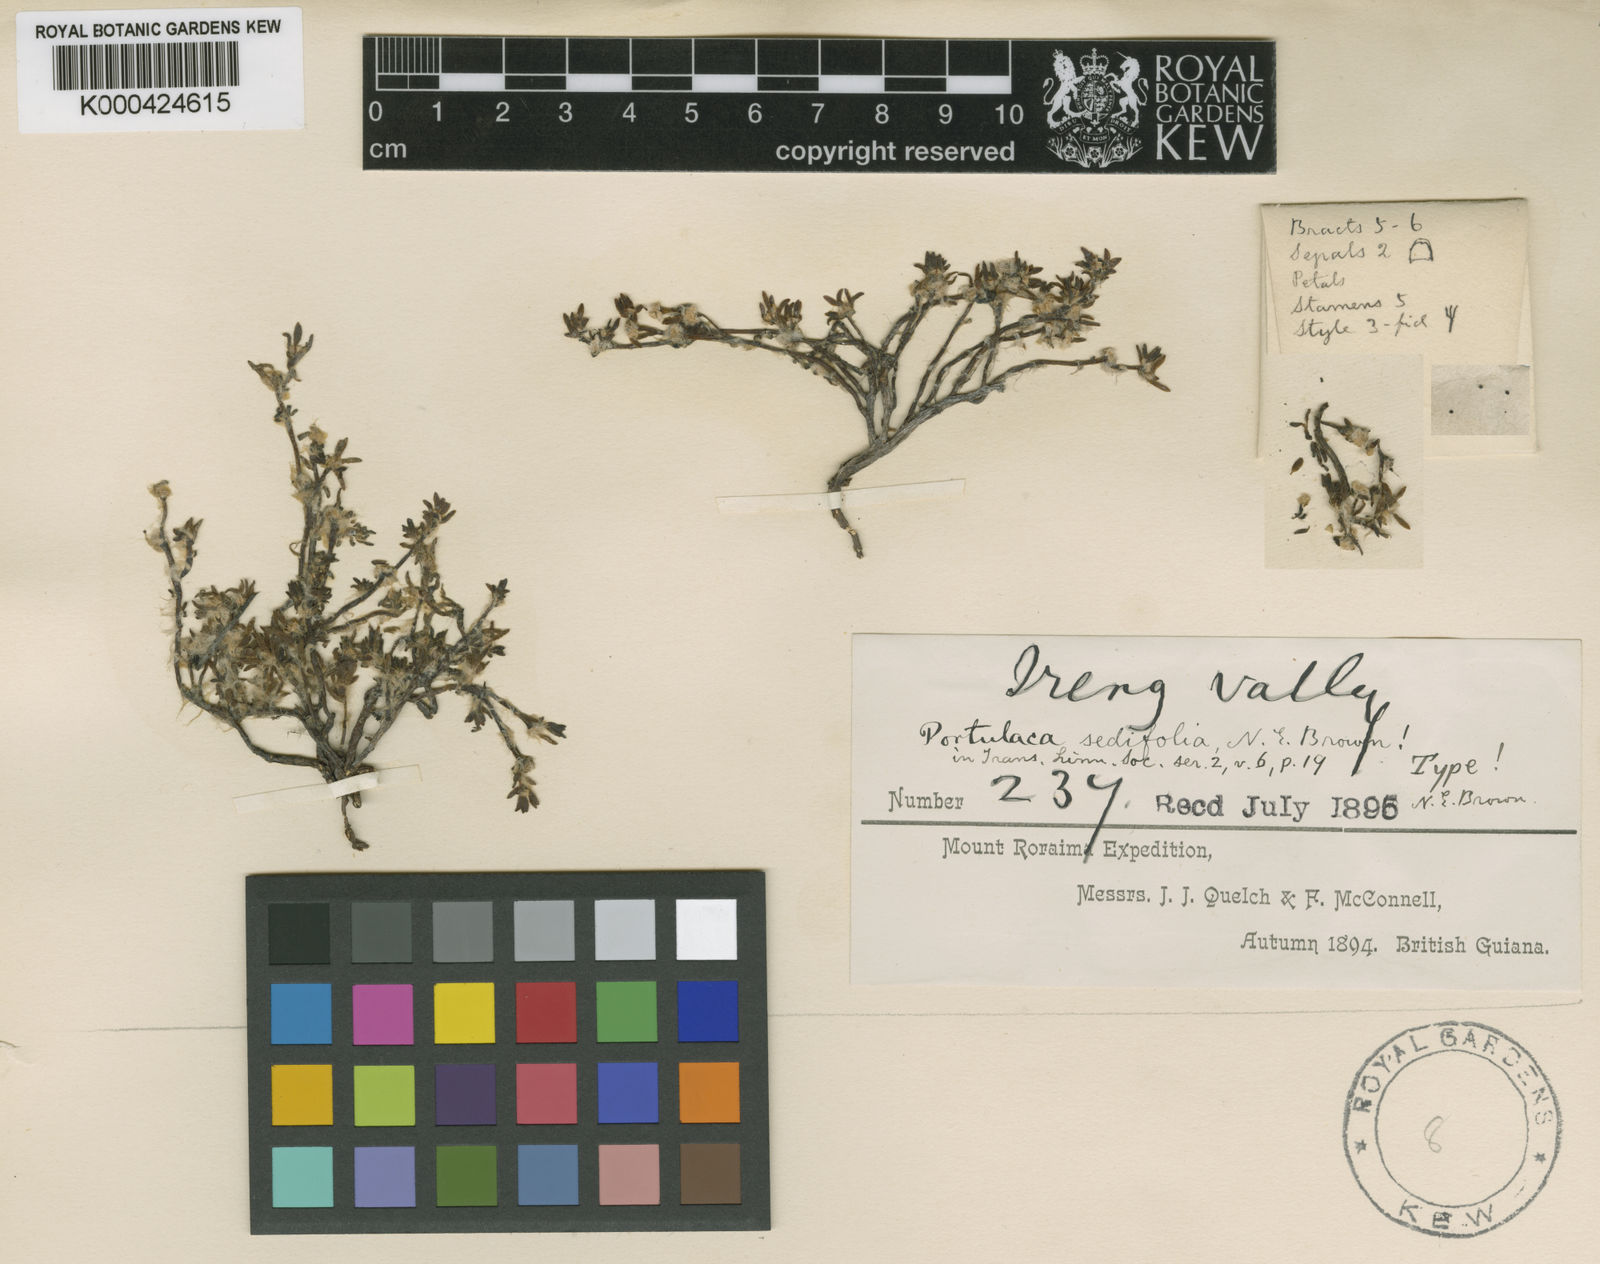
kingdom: Plantae
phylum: Tracheophyta
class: Magnoliopsida
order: Caryophyllales
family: Portulacaceae
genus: Portulaca
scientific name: Portulaca sedifolia
